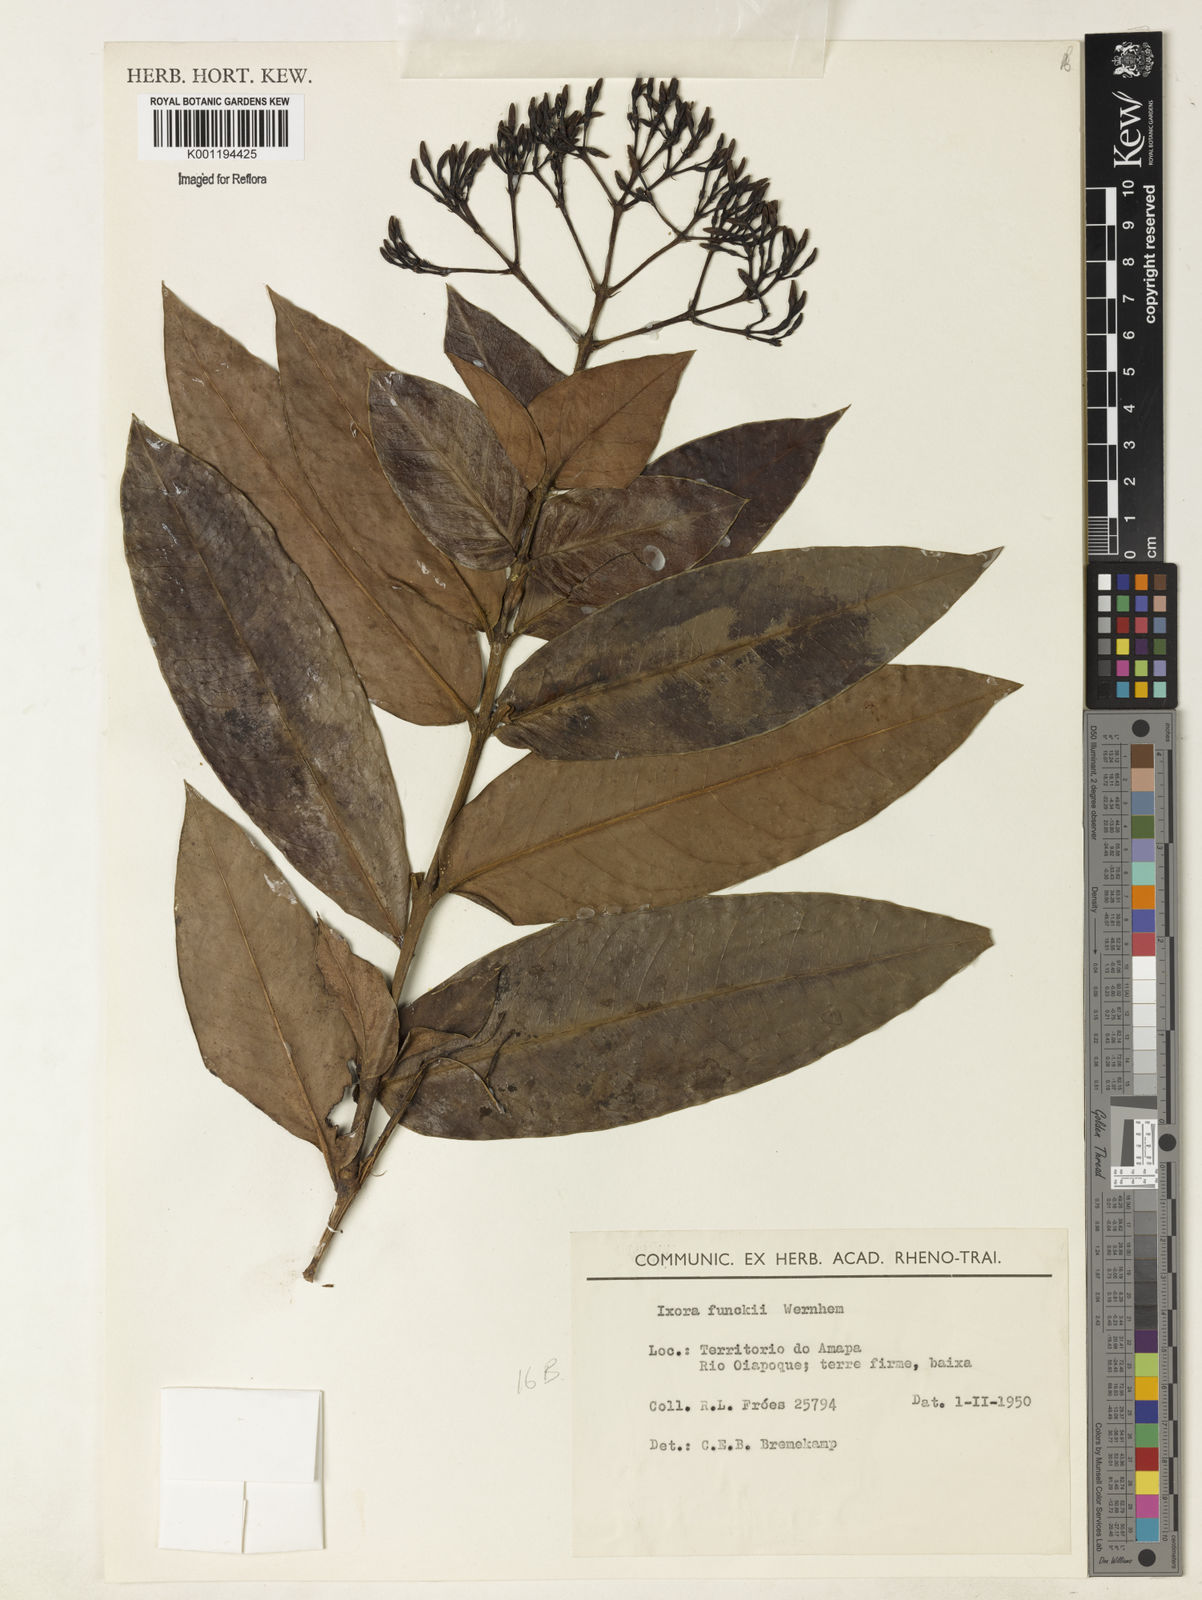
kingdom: Plantae
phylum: Tracheophyta
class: Magnoliopsida
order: Gentianales
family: Rubiaceae
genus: Ixora
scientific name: Ixora funckii
